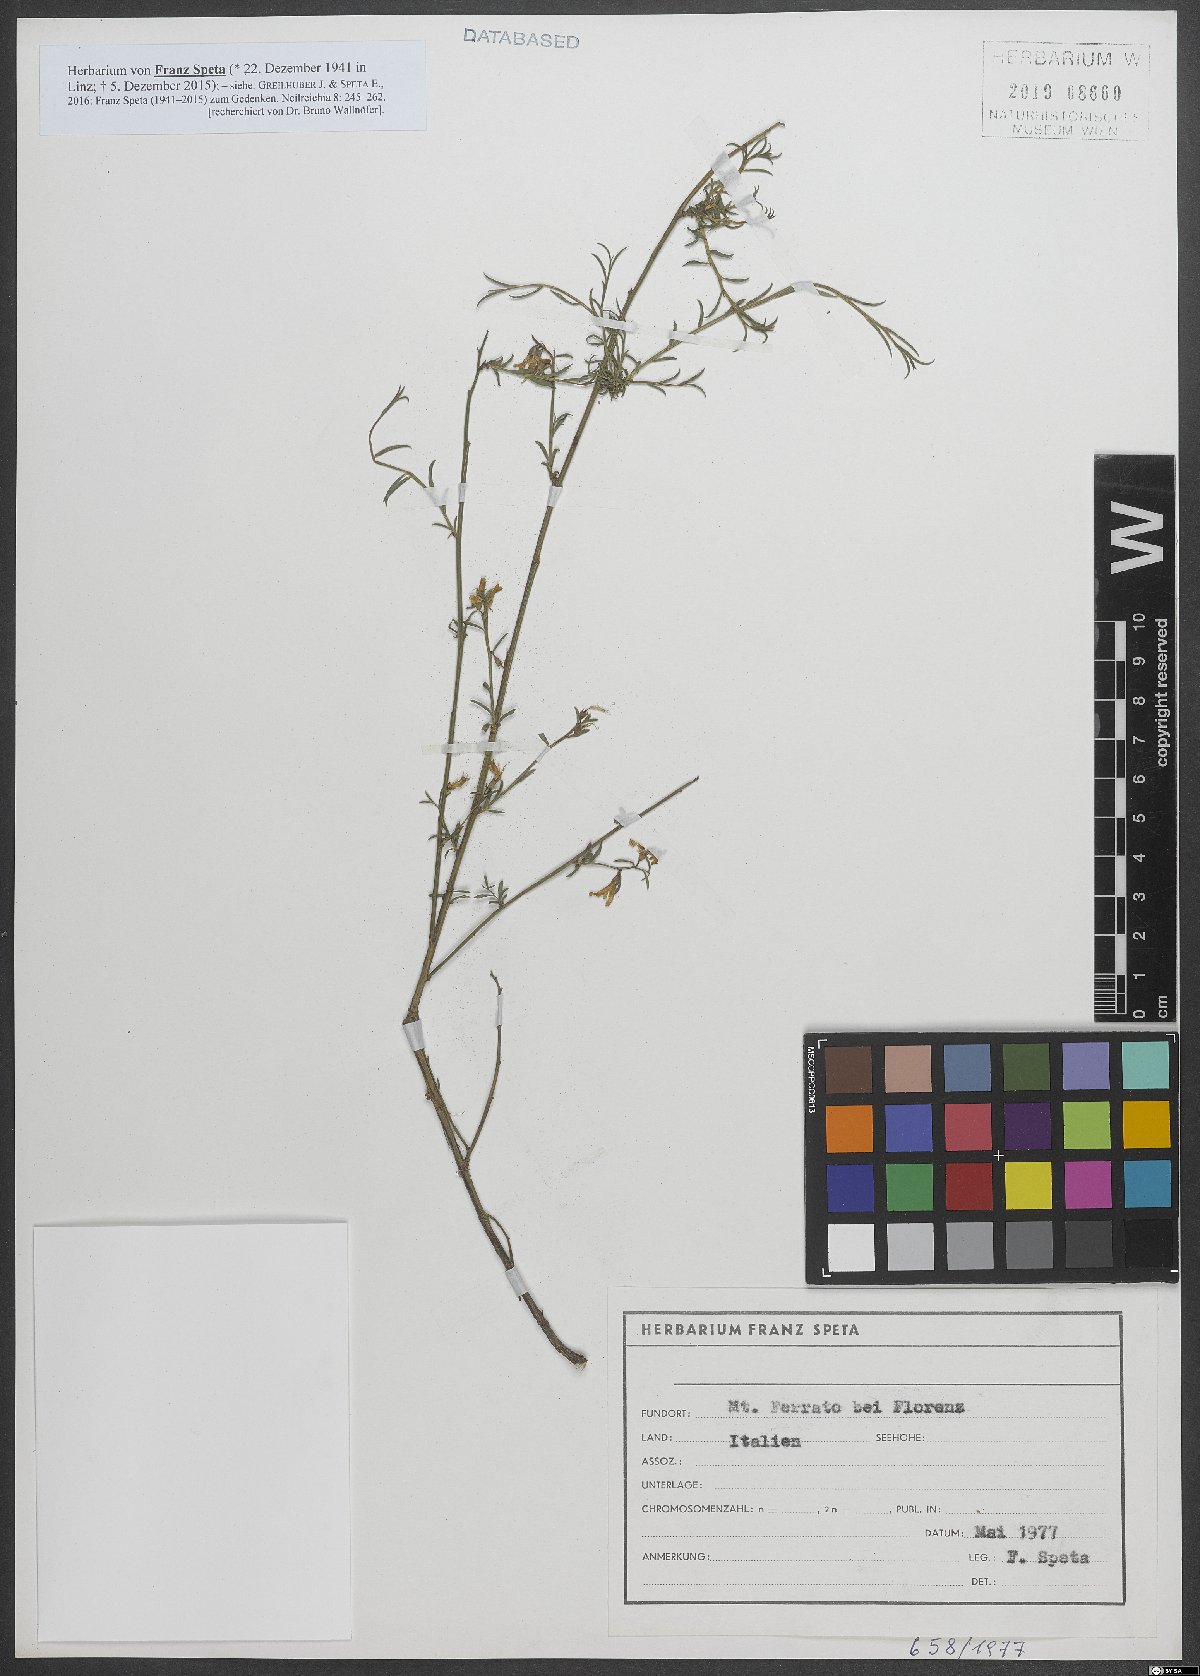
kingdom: Plantae
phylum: Tracheophyta
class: Magnoliopsida
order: Fabales
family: Fabaceae
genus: Genista
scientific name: Genista januensis
